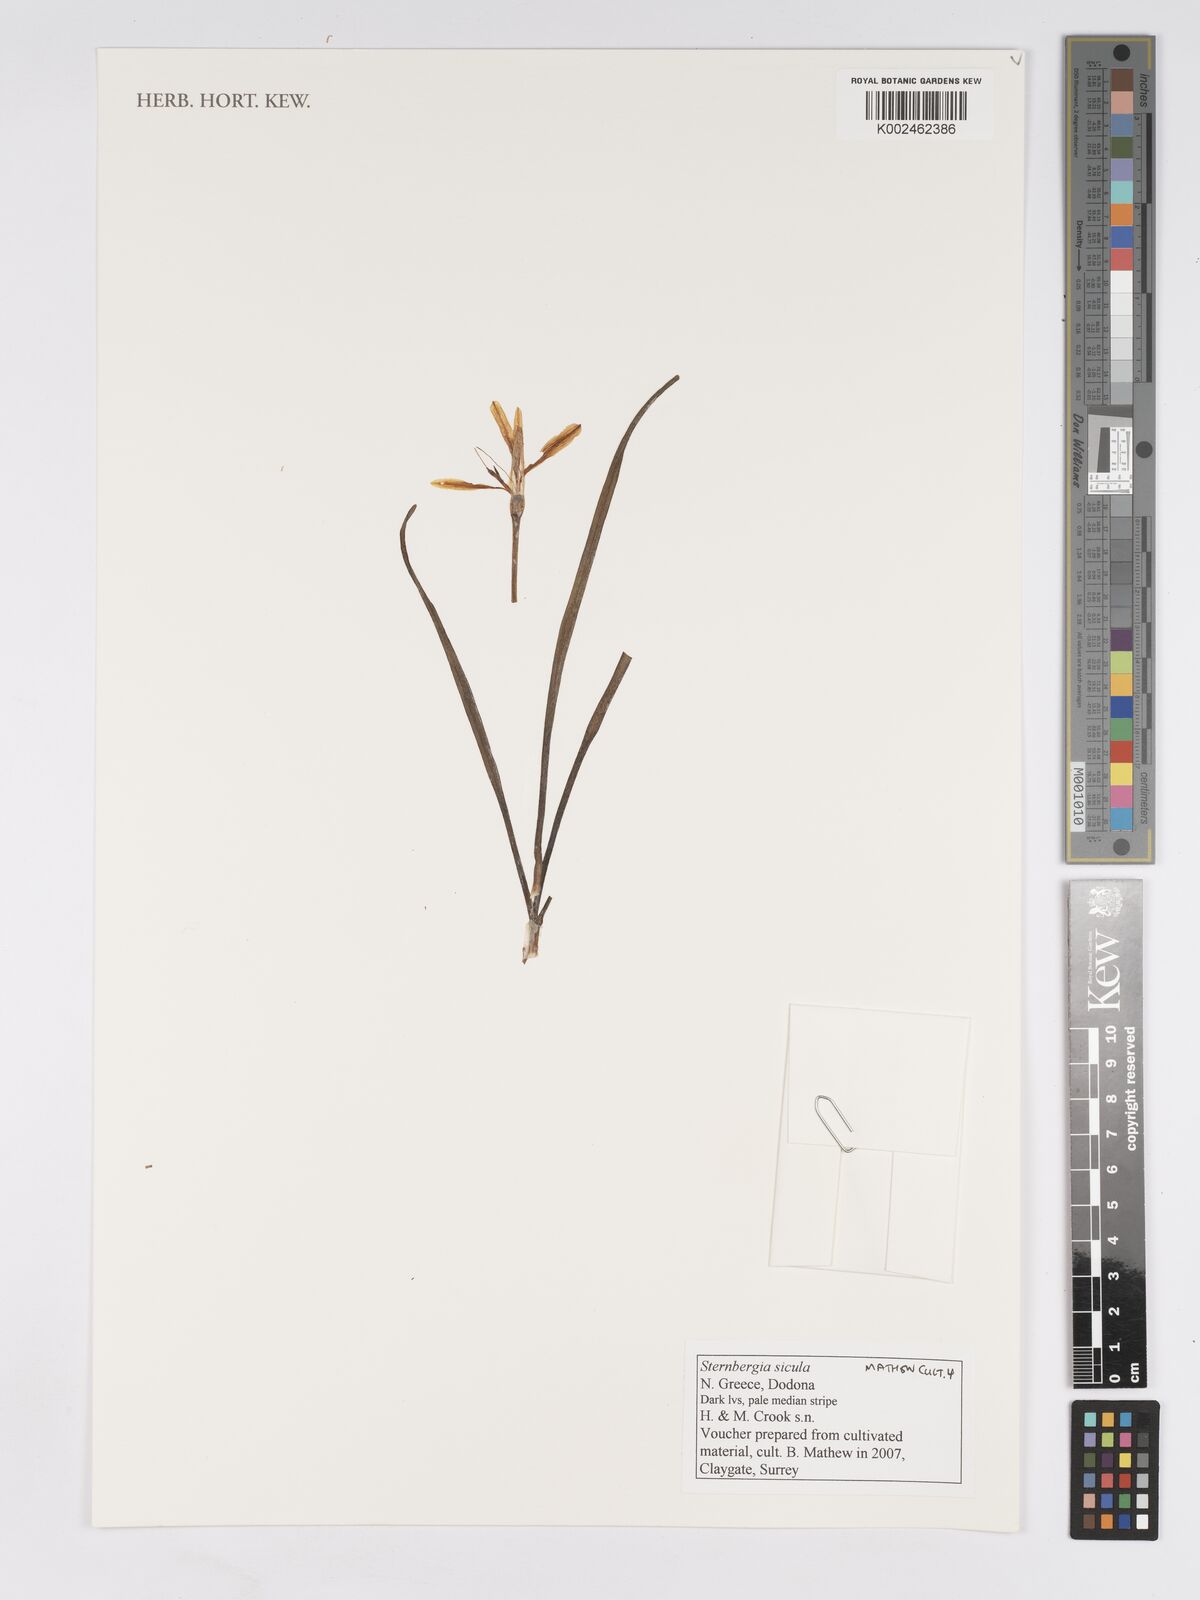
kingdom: Plantae
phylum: Tracheophyta
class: Liliopsida
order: Asparagales
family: Amaryllidaceae
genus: Sternbergia
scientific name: Sternbergia lutea
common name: Winter daffodil
